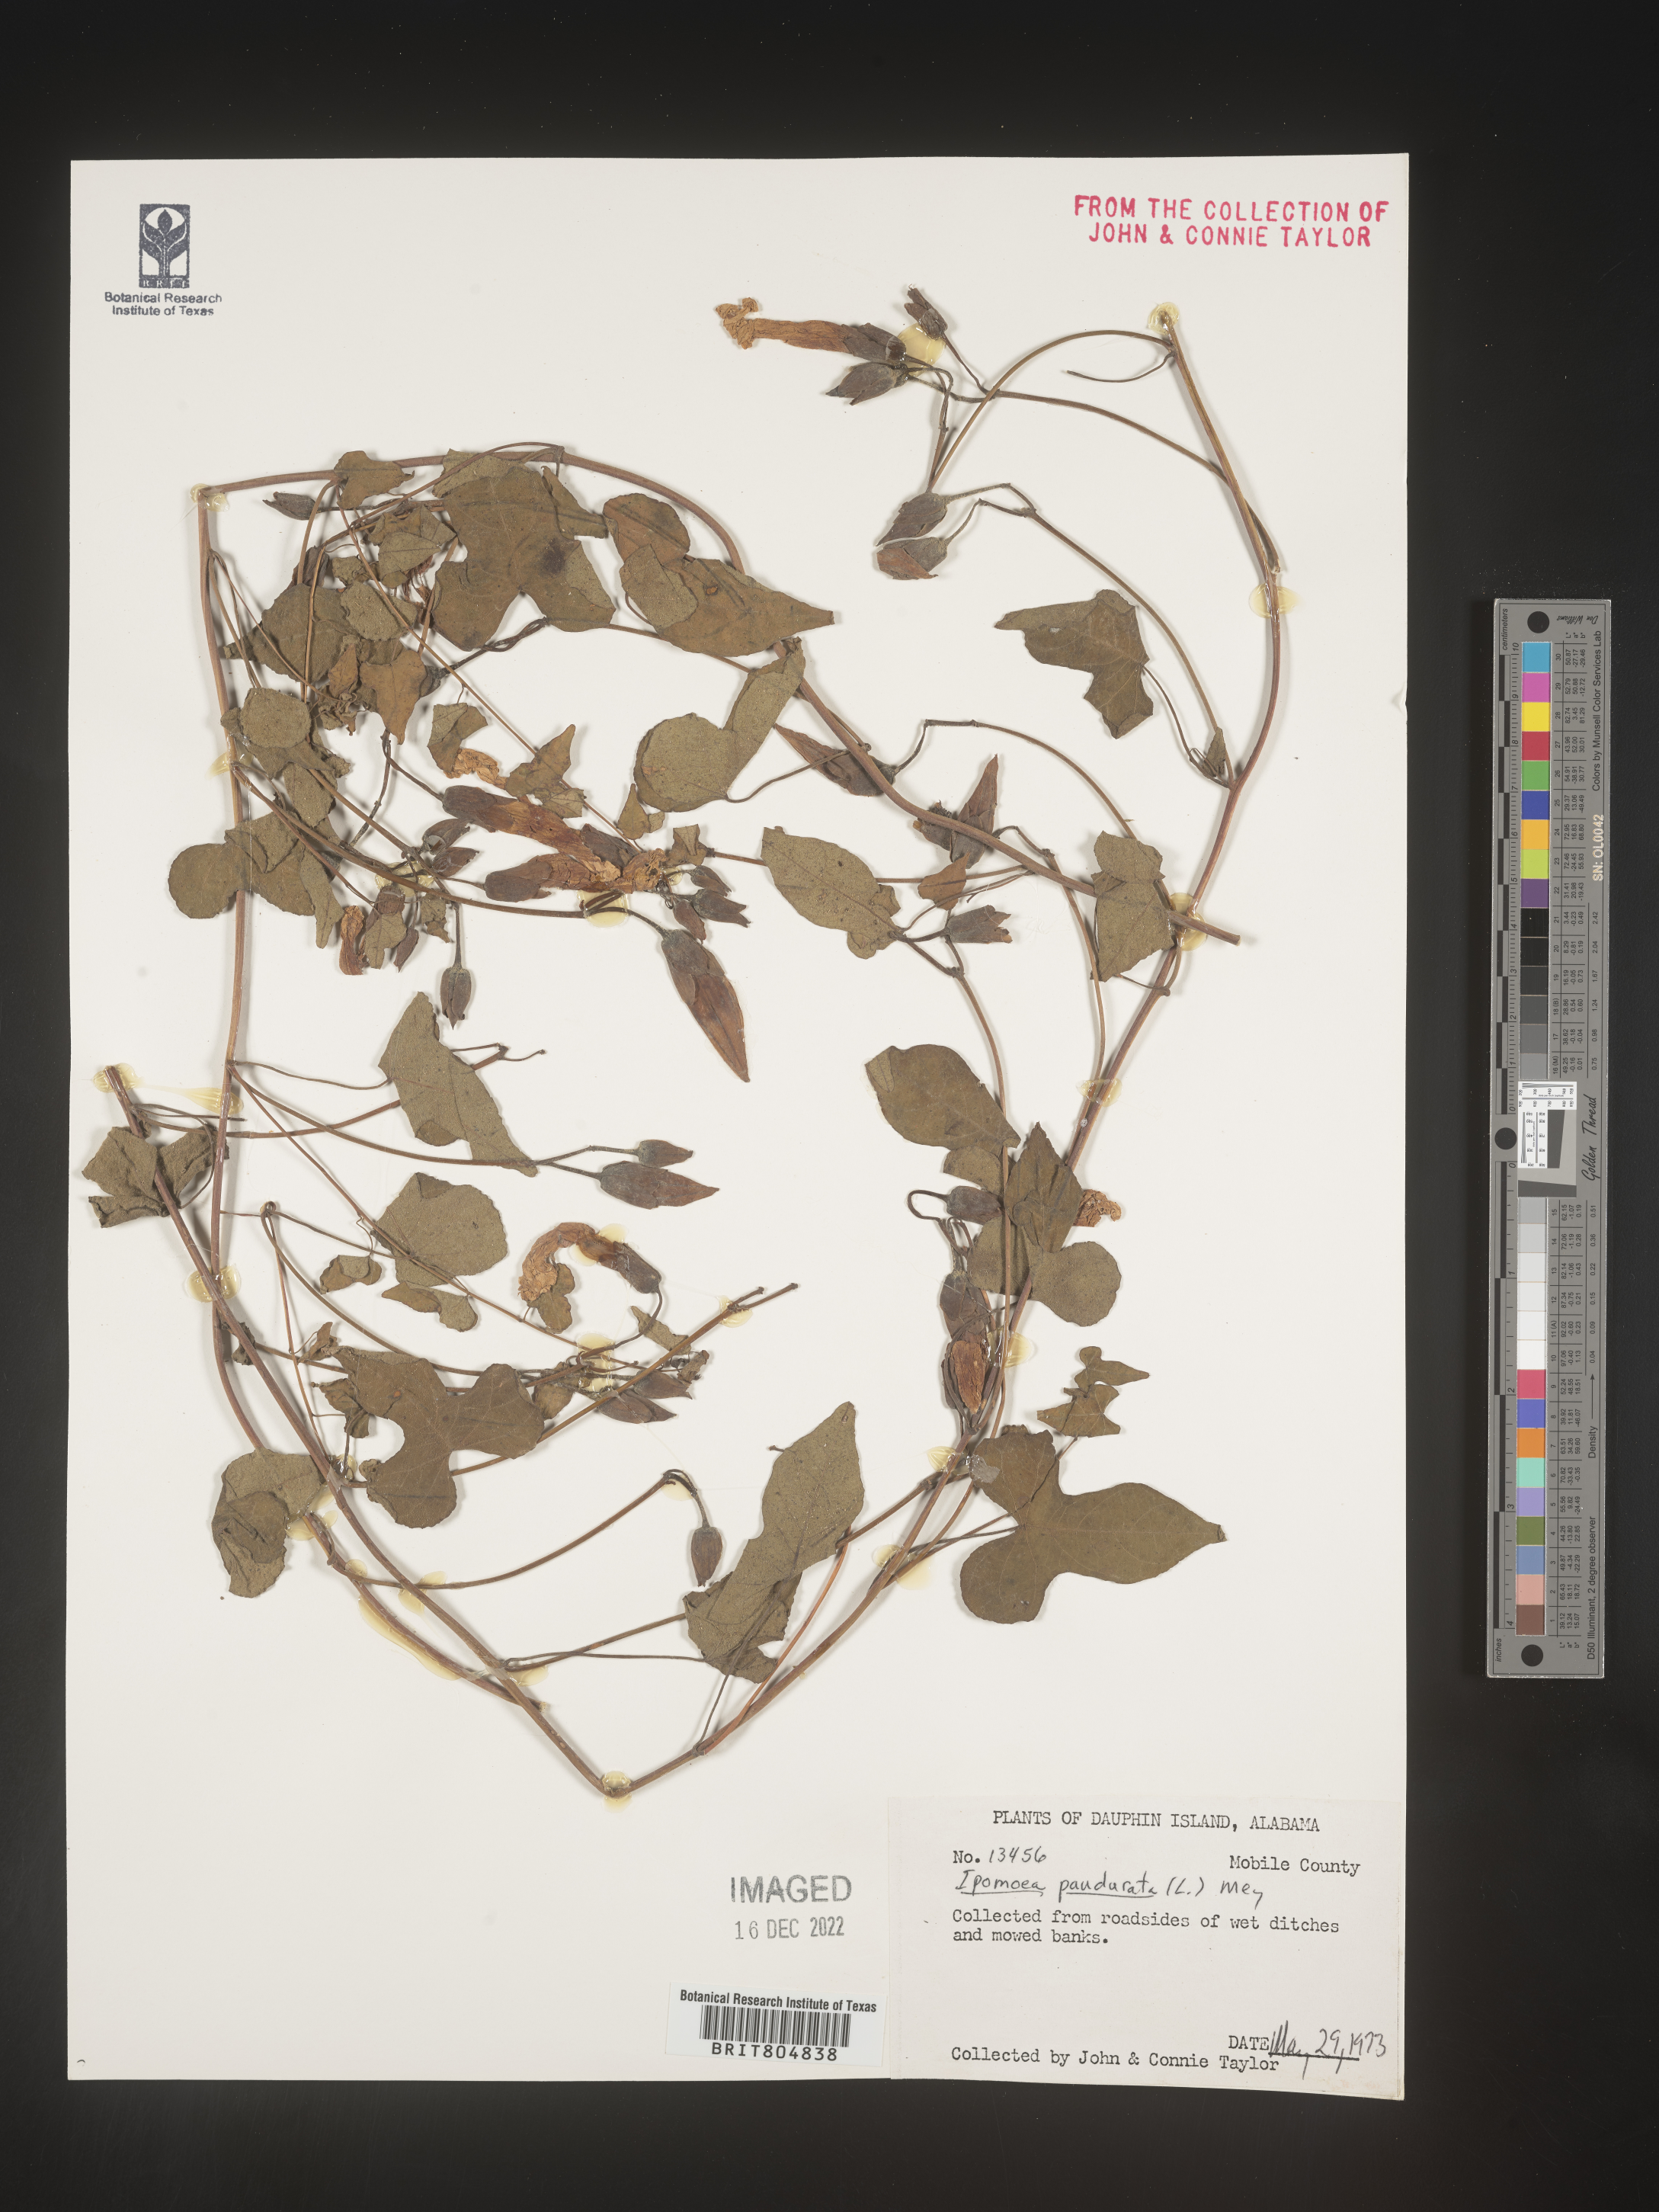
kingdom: Plantae
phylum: Tracheophyta
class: Magnoliopsida
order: Solanales
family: Convolvulaceae
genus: Ipomoea
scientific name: Ipomoea pandurata
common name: Man-of-the-earth
